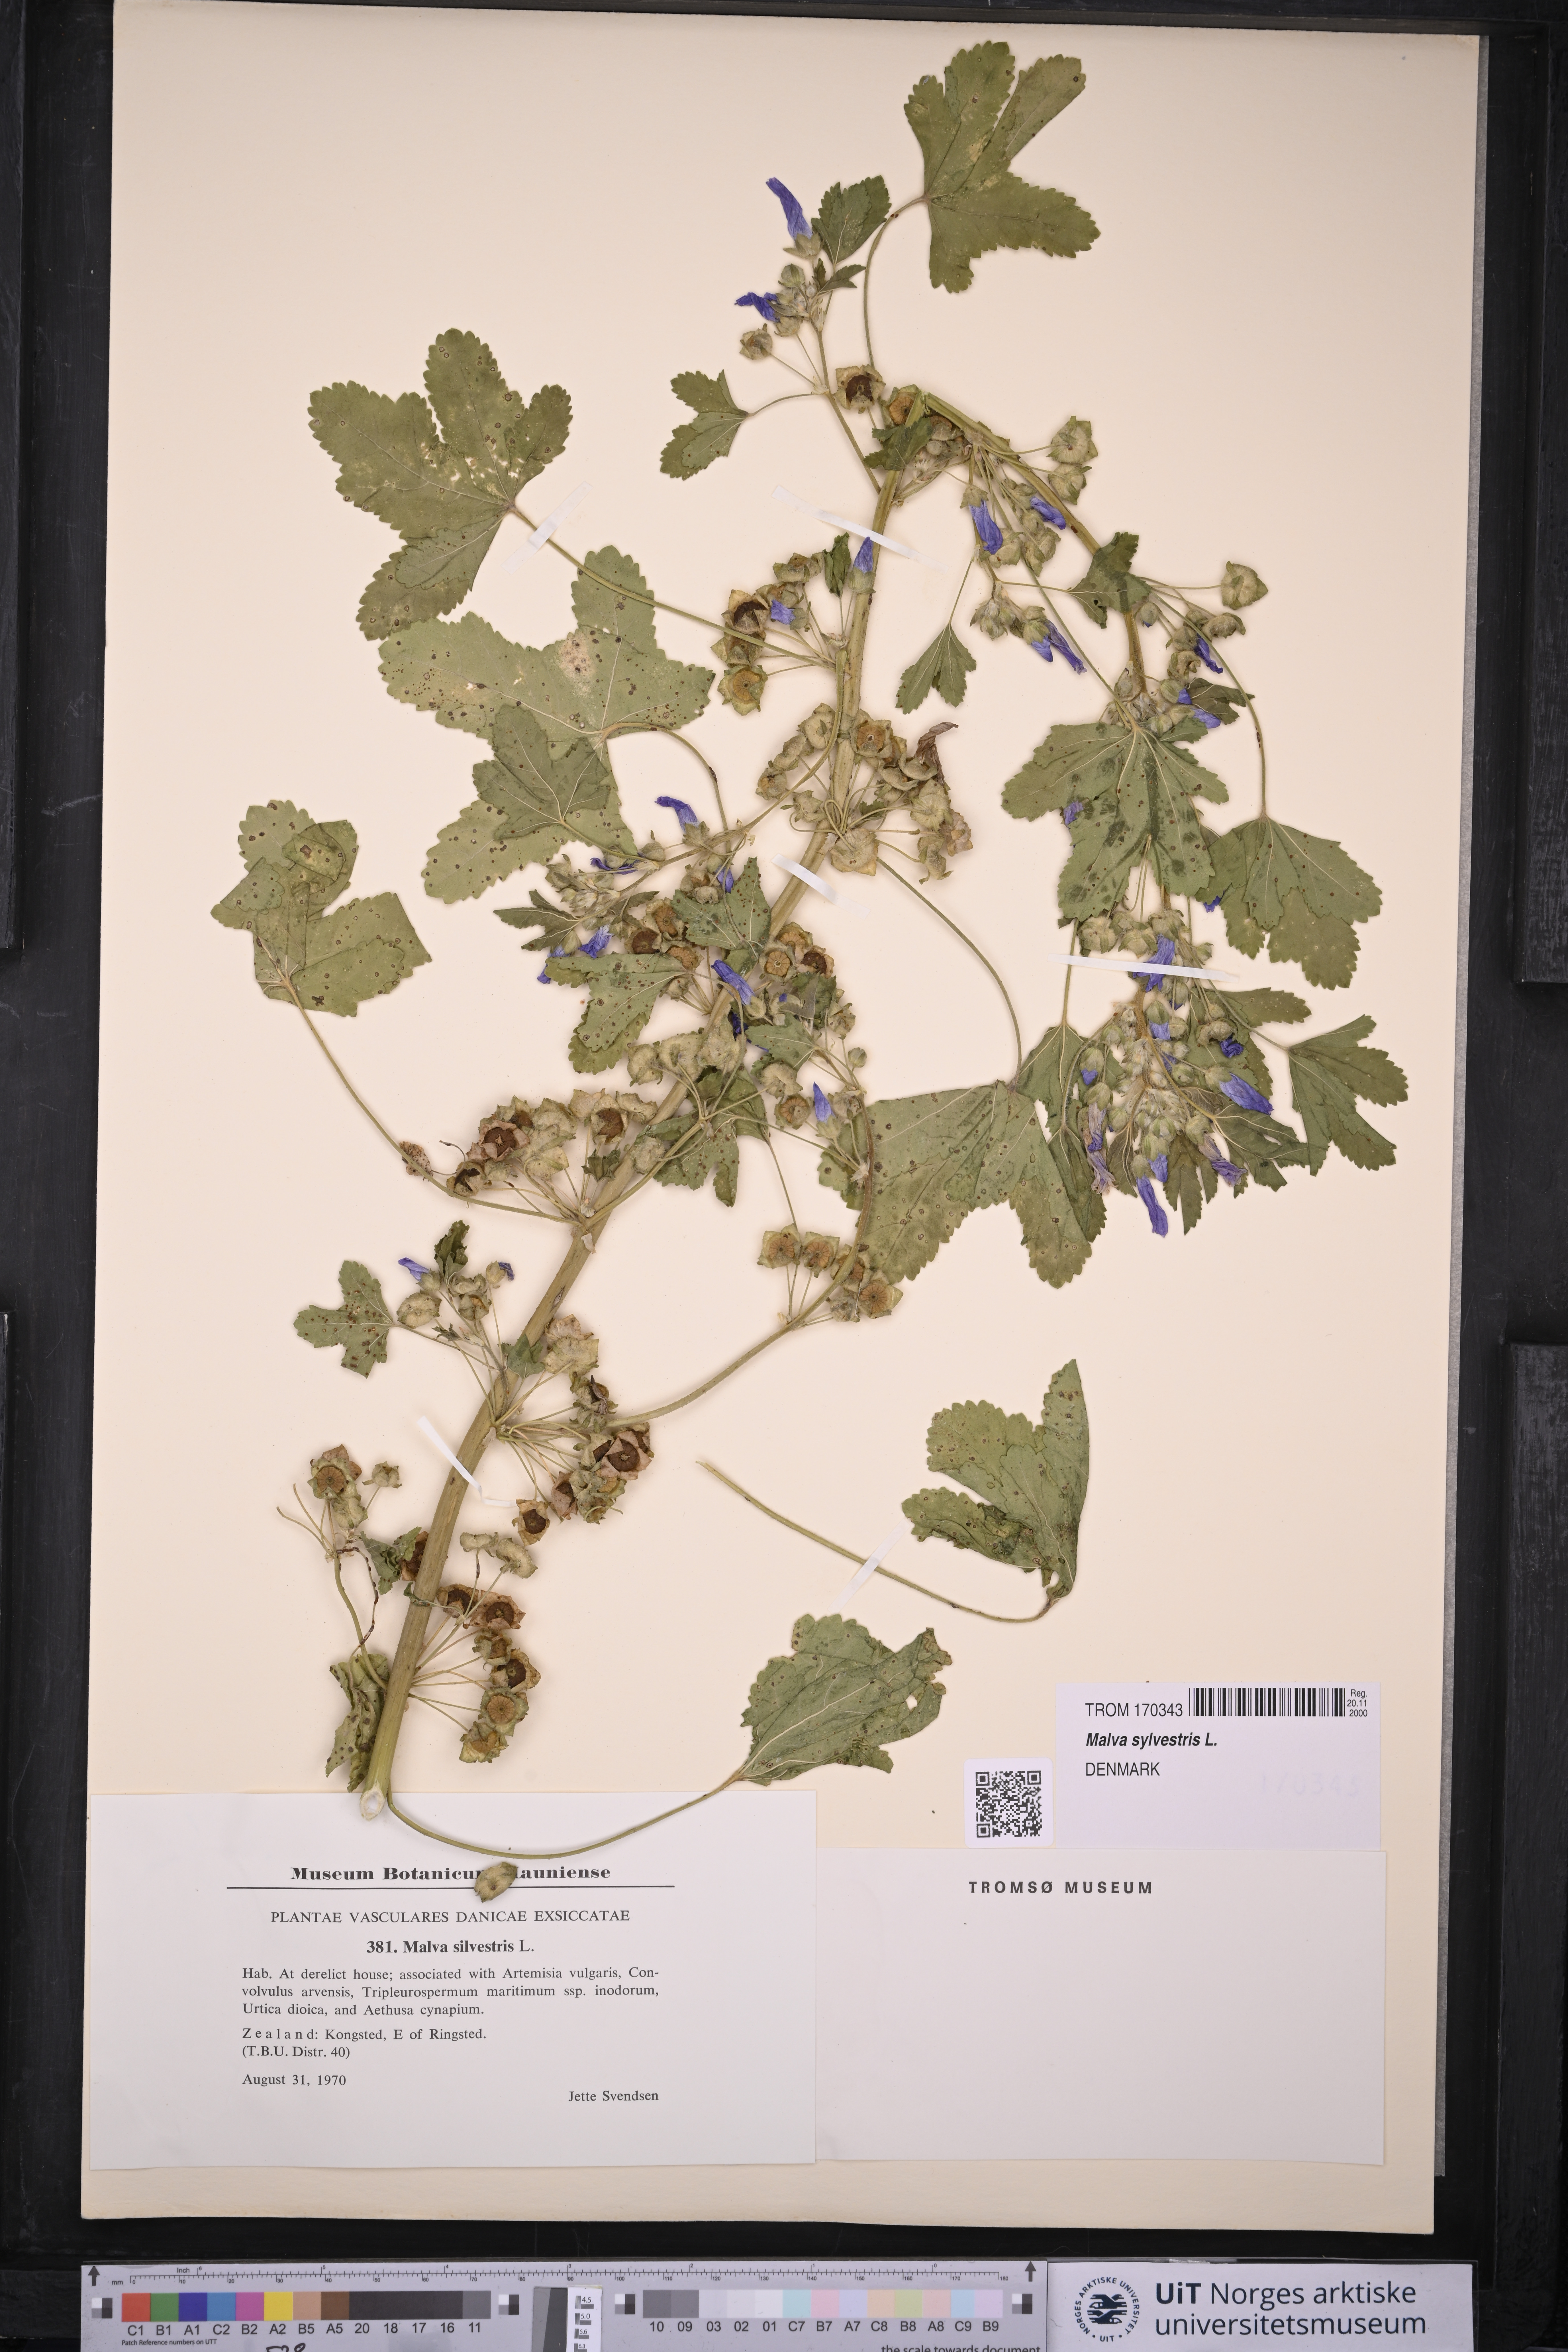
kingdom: Plantae
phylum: Tracheophyta
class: Magnoliopsida
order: Malvales
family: Malvaceae
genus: Malva
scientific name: Malva sylvestris
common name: Common mallow
